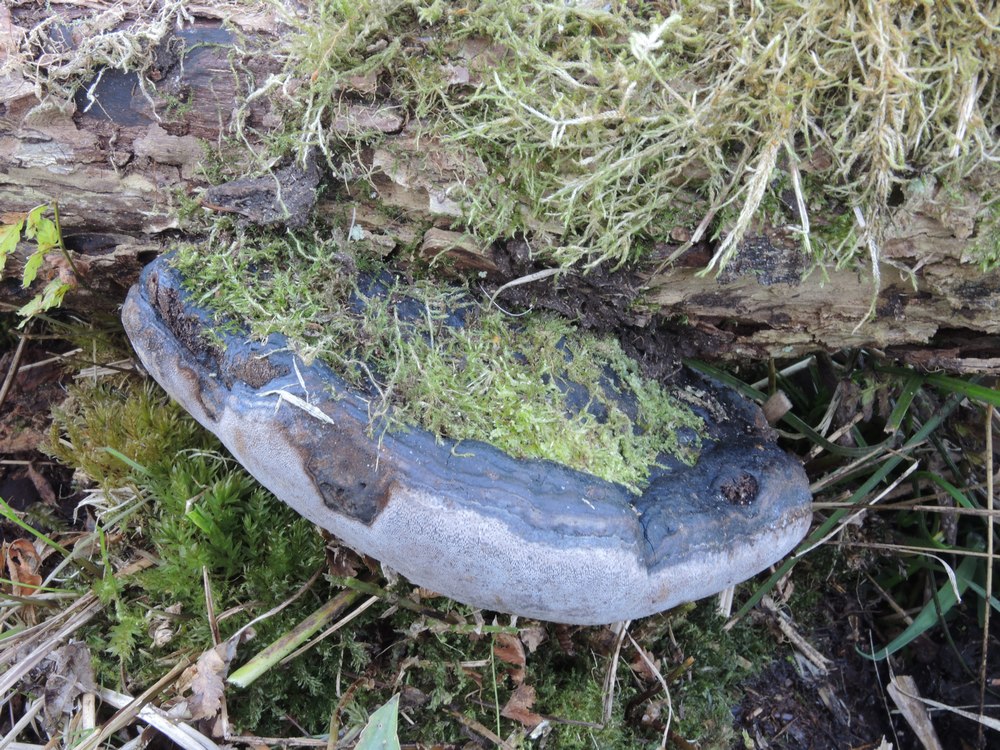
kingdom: Fungi
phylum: Basidiomycota
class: Agaricomycetes
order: Hymenochaetales
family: Hymenochaetaceae
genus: Phellinus
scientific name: Phellinus igniarius
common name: almindelig ildporesvamp
